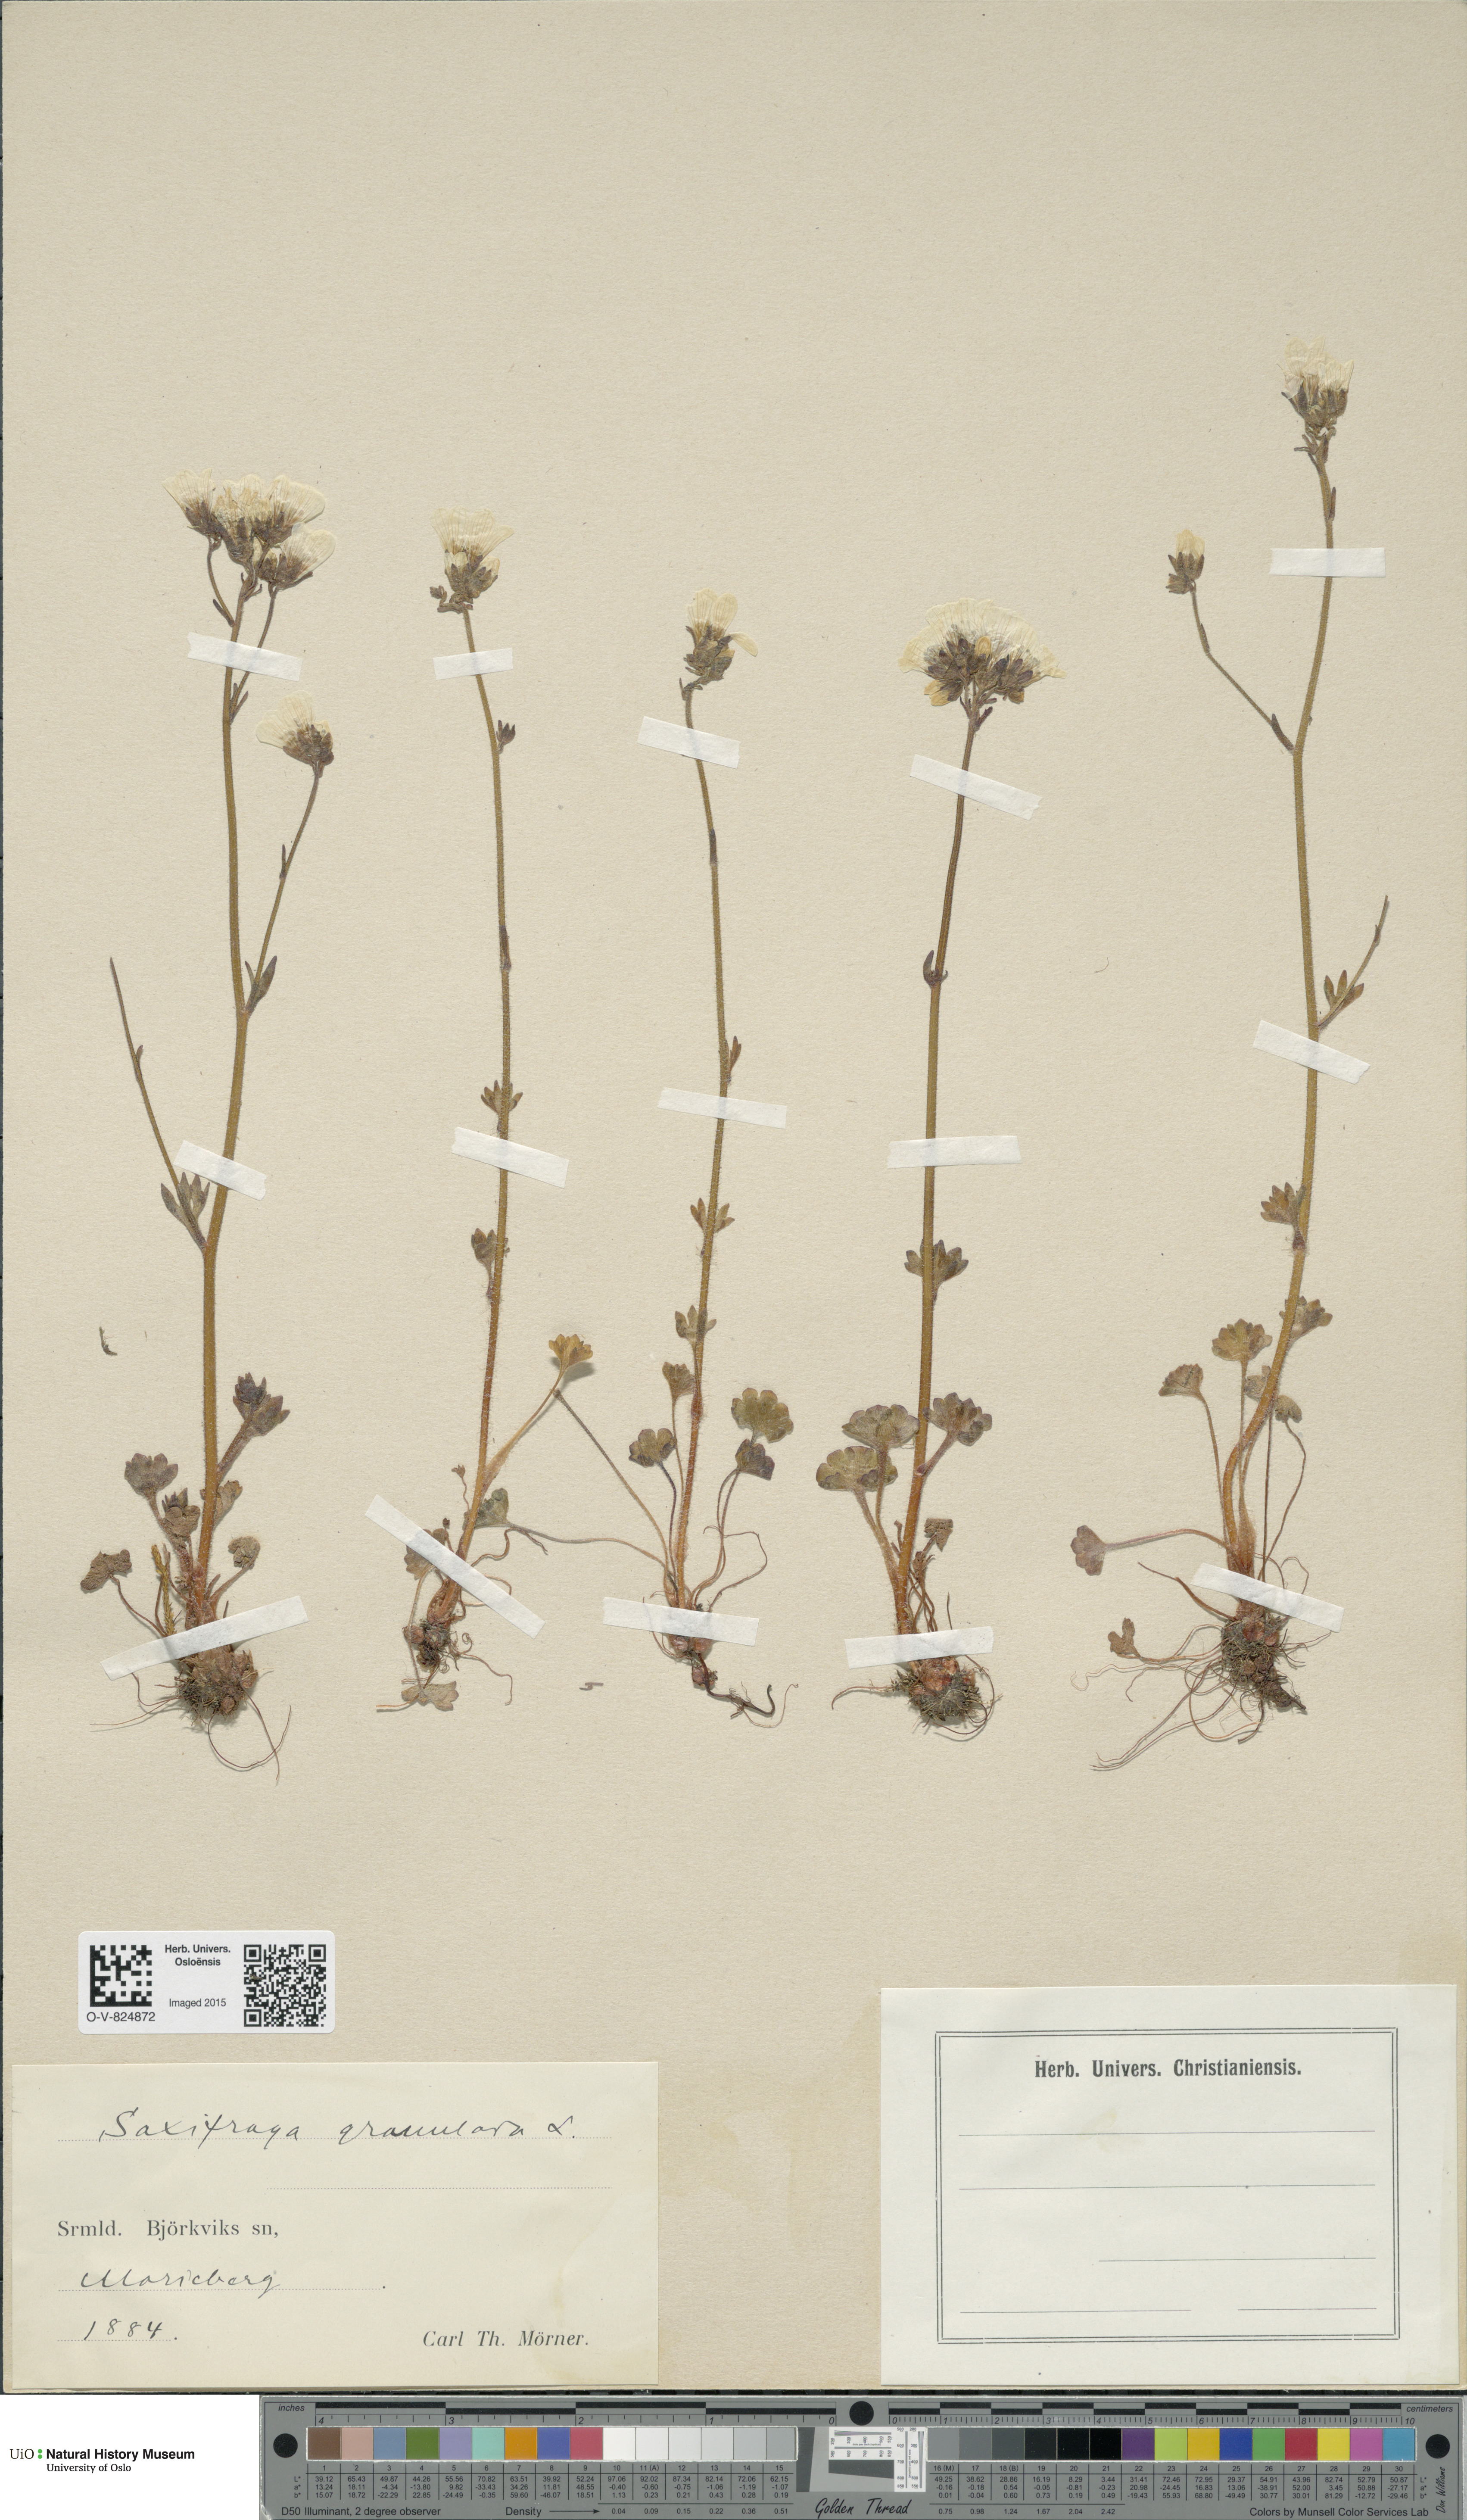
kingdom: Plantae
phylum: Tracheophyta
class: Magnoliopsida
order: Saxifragales
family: Saxifragaceae
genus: Saxifraga
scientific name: Saxifraga granulata
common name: Meadow saxifrage
